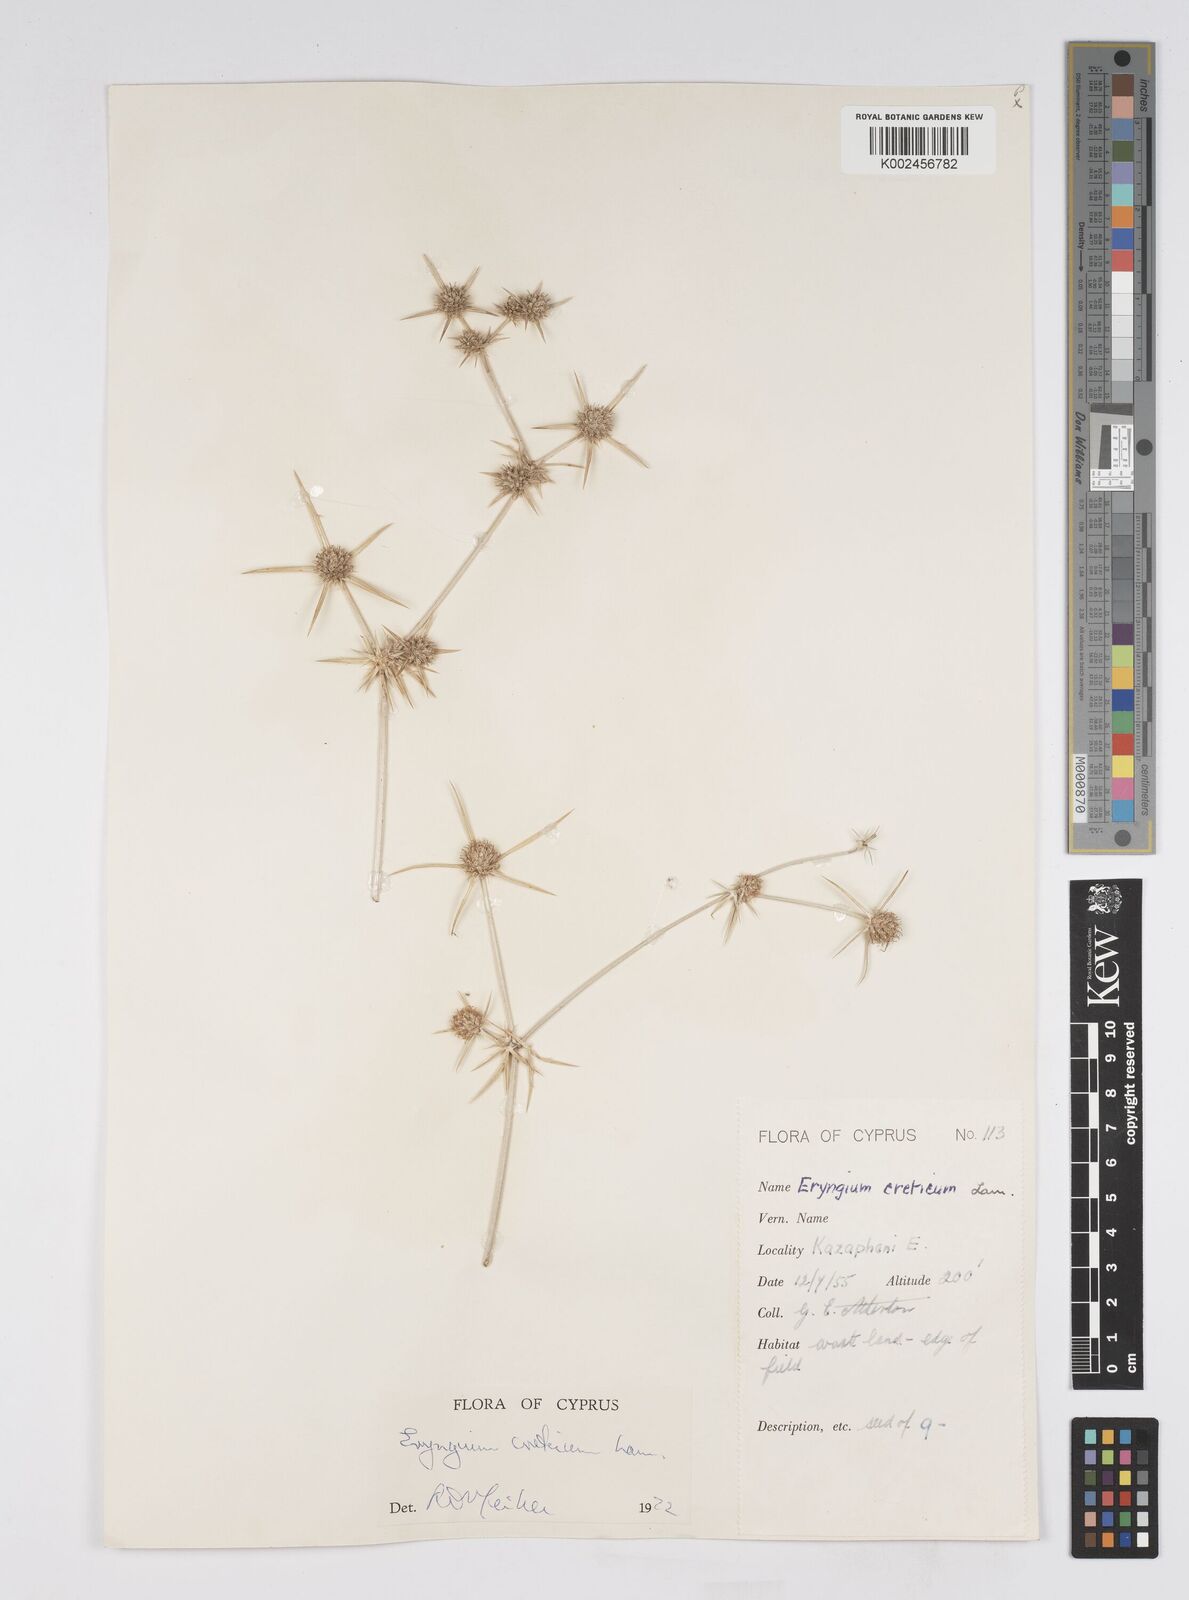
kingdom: Plantae
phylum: Tracheophyta
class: Magnoliopsida
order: Apiales
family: Apiaceae
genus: Eryngium
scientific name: Eryngium creticum
